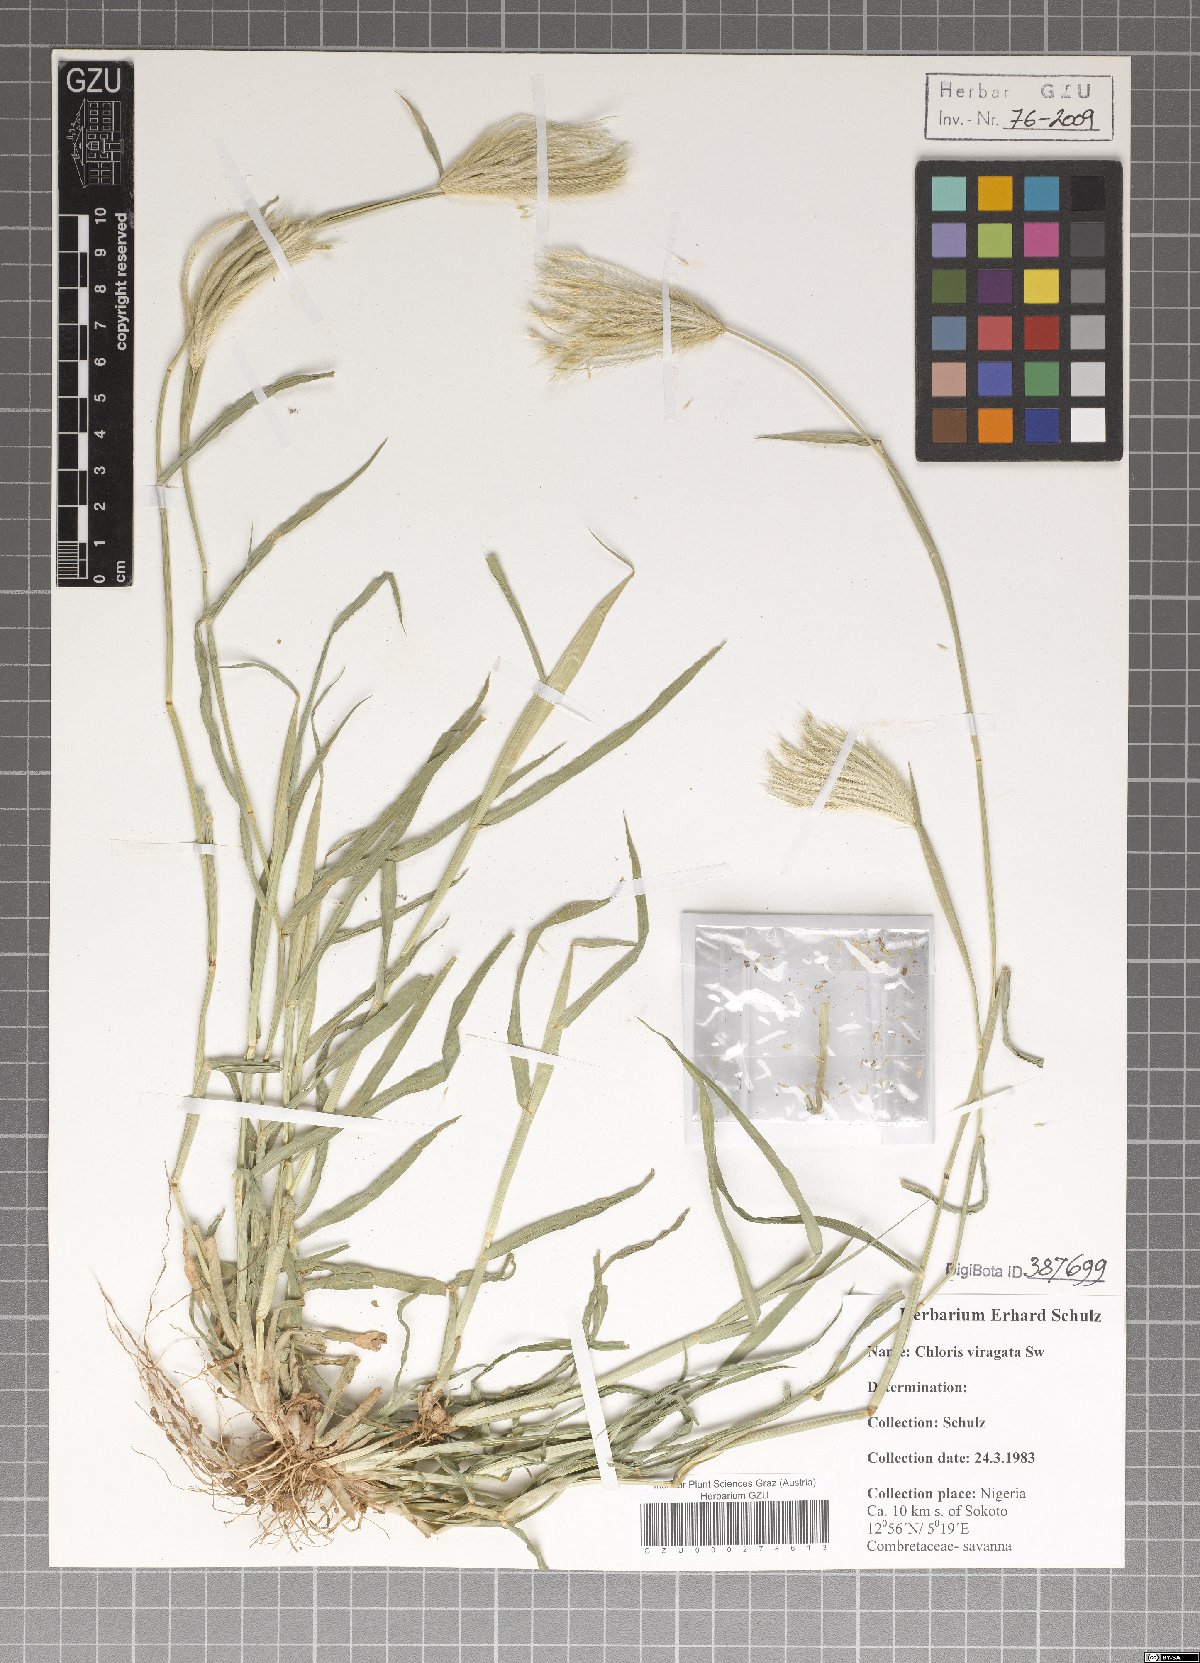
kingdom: Plantae
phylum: Tracheophyta
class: Liliopsida
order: Poales
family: Poaceae
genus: Chloris
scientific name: Chloris virgata
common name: Feathery rhodes-grass
